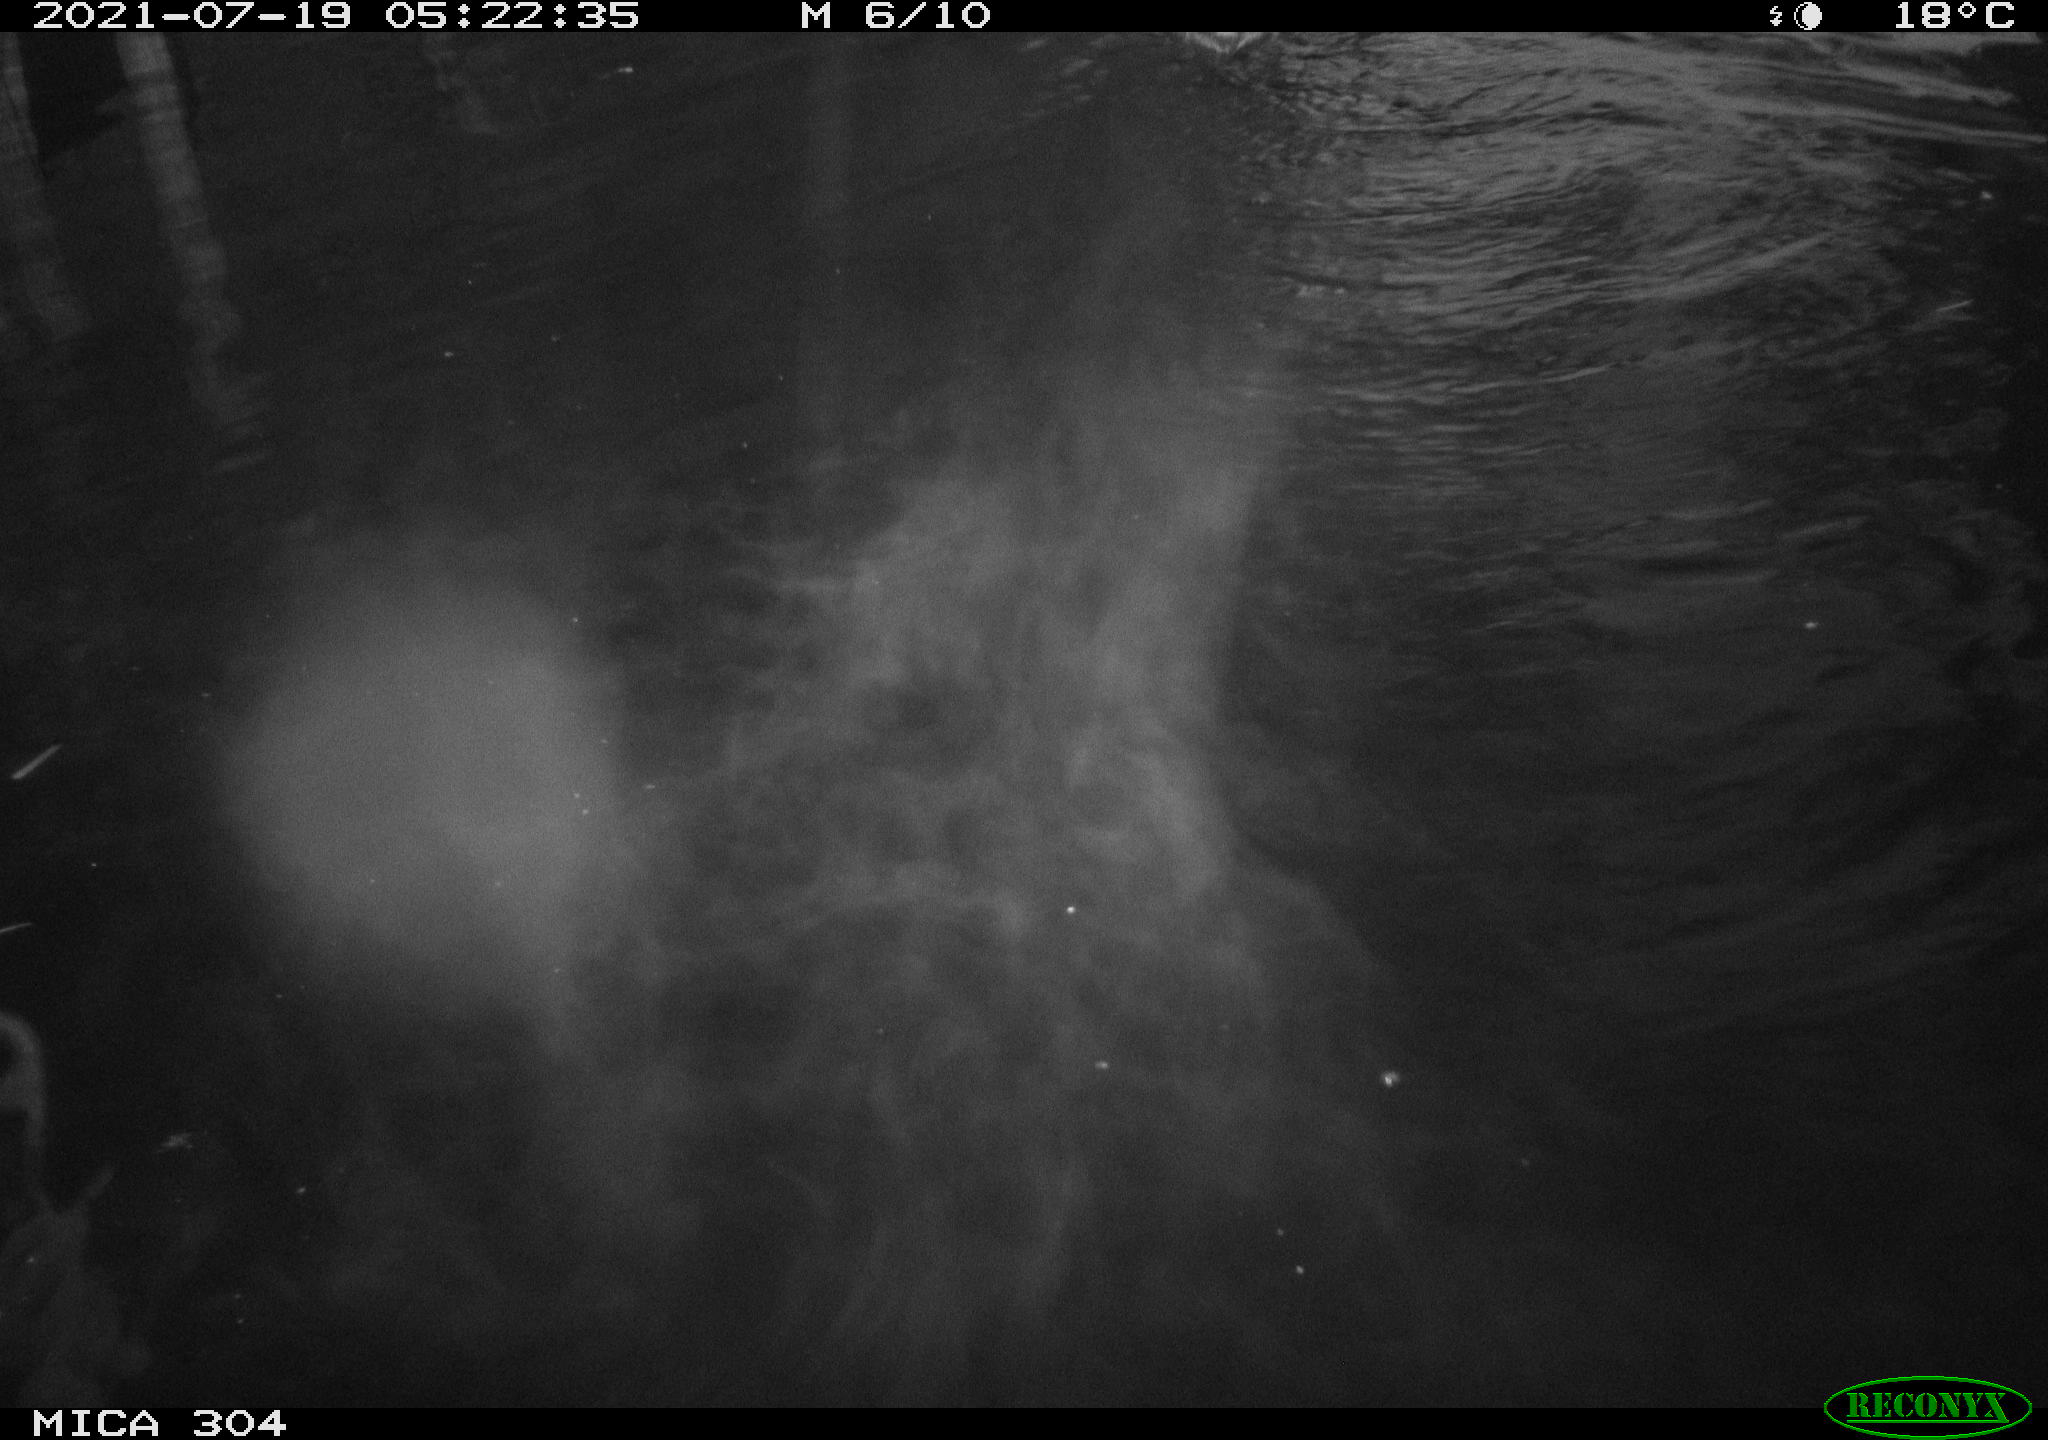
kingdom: Animalia
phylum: Chordata
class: Aves
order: Anseriformes
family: Anatidae
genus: Anas
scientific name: Anas platyrhynchos
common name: Mallard
